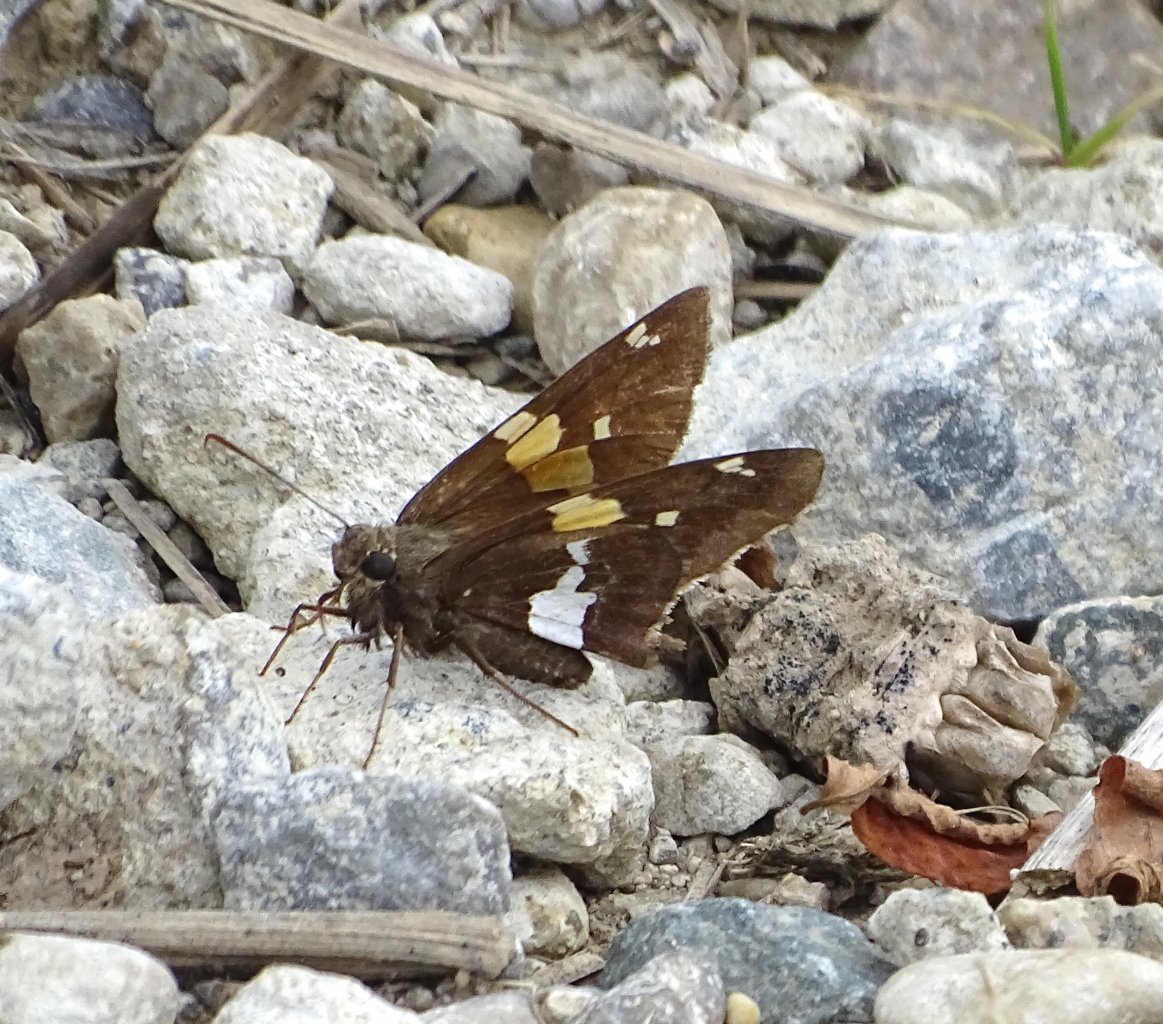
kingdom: Animalia
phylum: Arthropoda
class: Insecta
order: Lepidoptera
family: Hesperiidae
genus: Epargyreus
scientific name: Epargyreus clarus
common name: Silver-spotted Skipper
